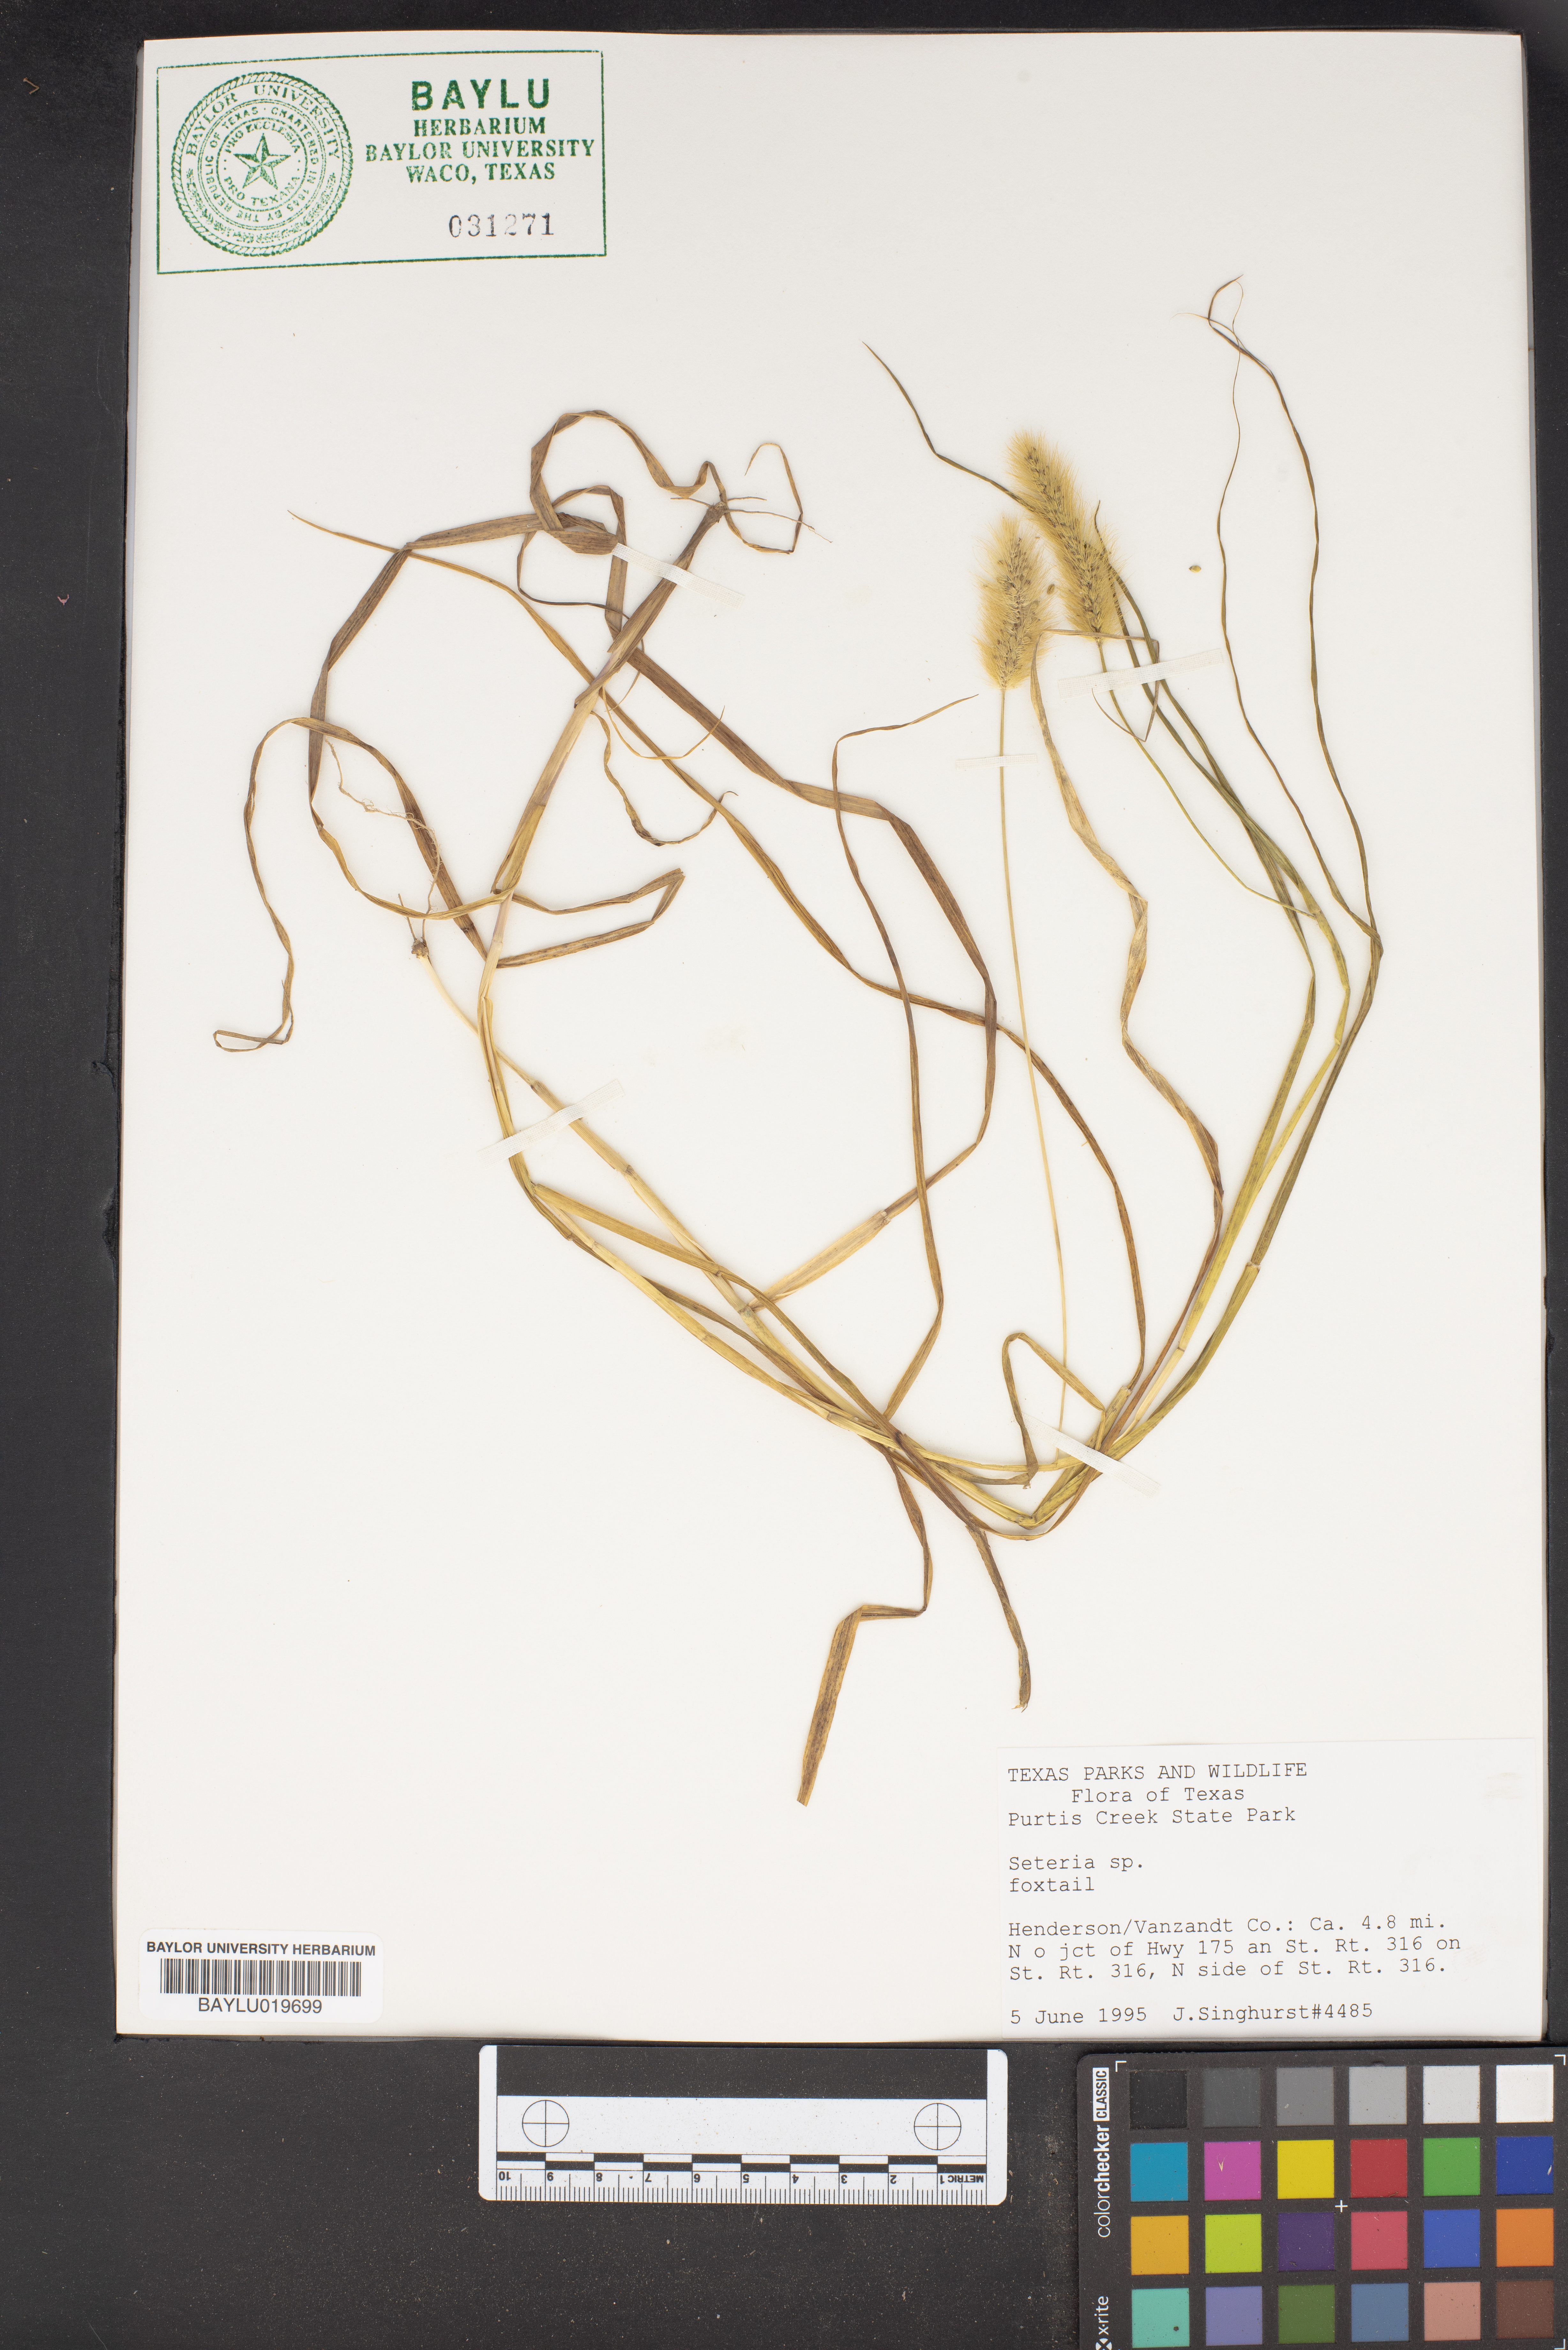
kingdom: Plantae
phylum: Tracheophyta
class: Liliopsida
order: Poales
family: Poaceae
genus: Setaria
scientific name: Setaria
